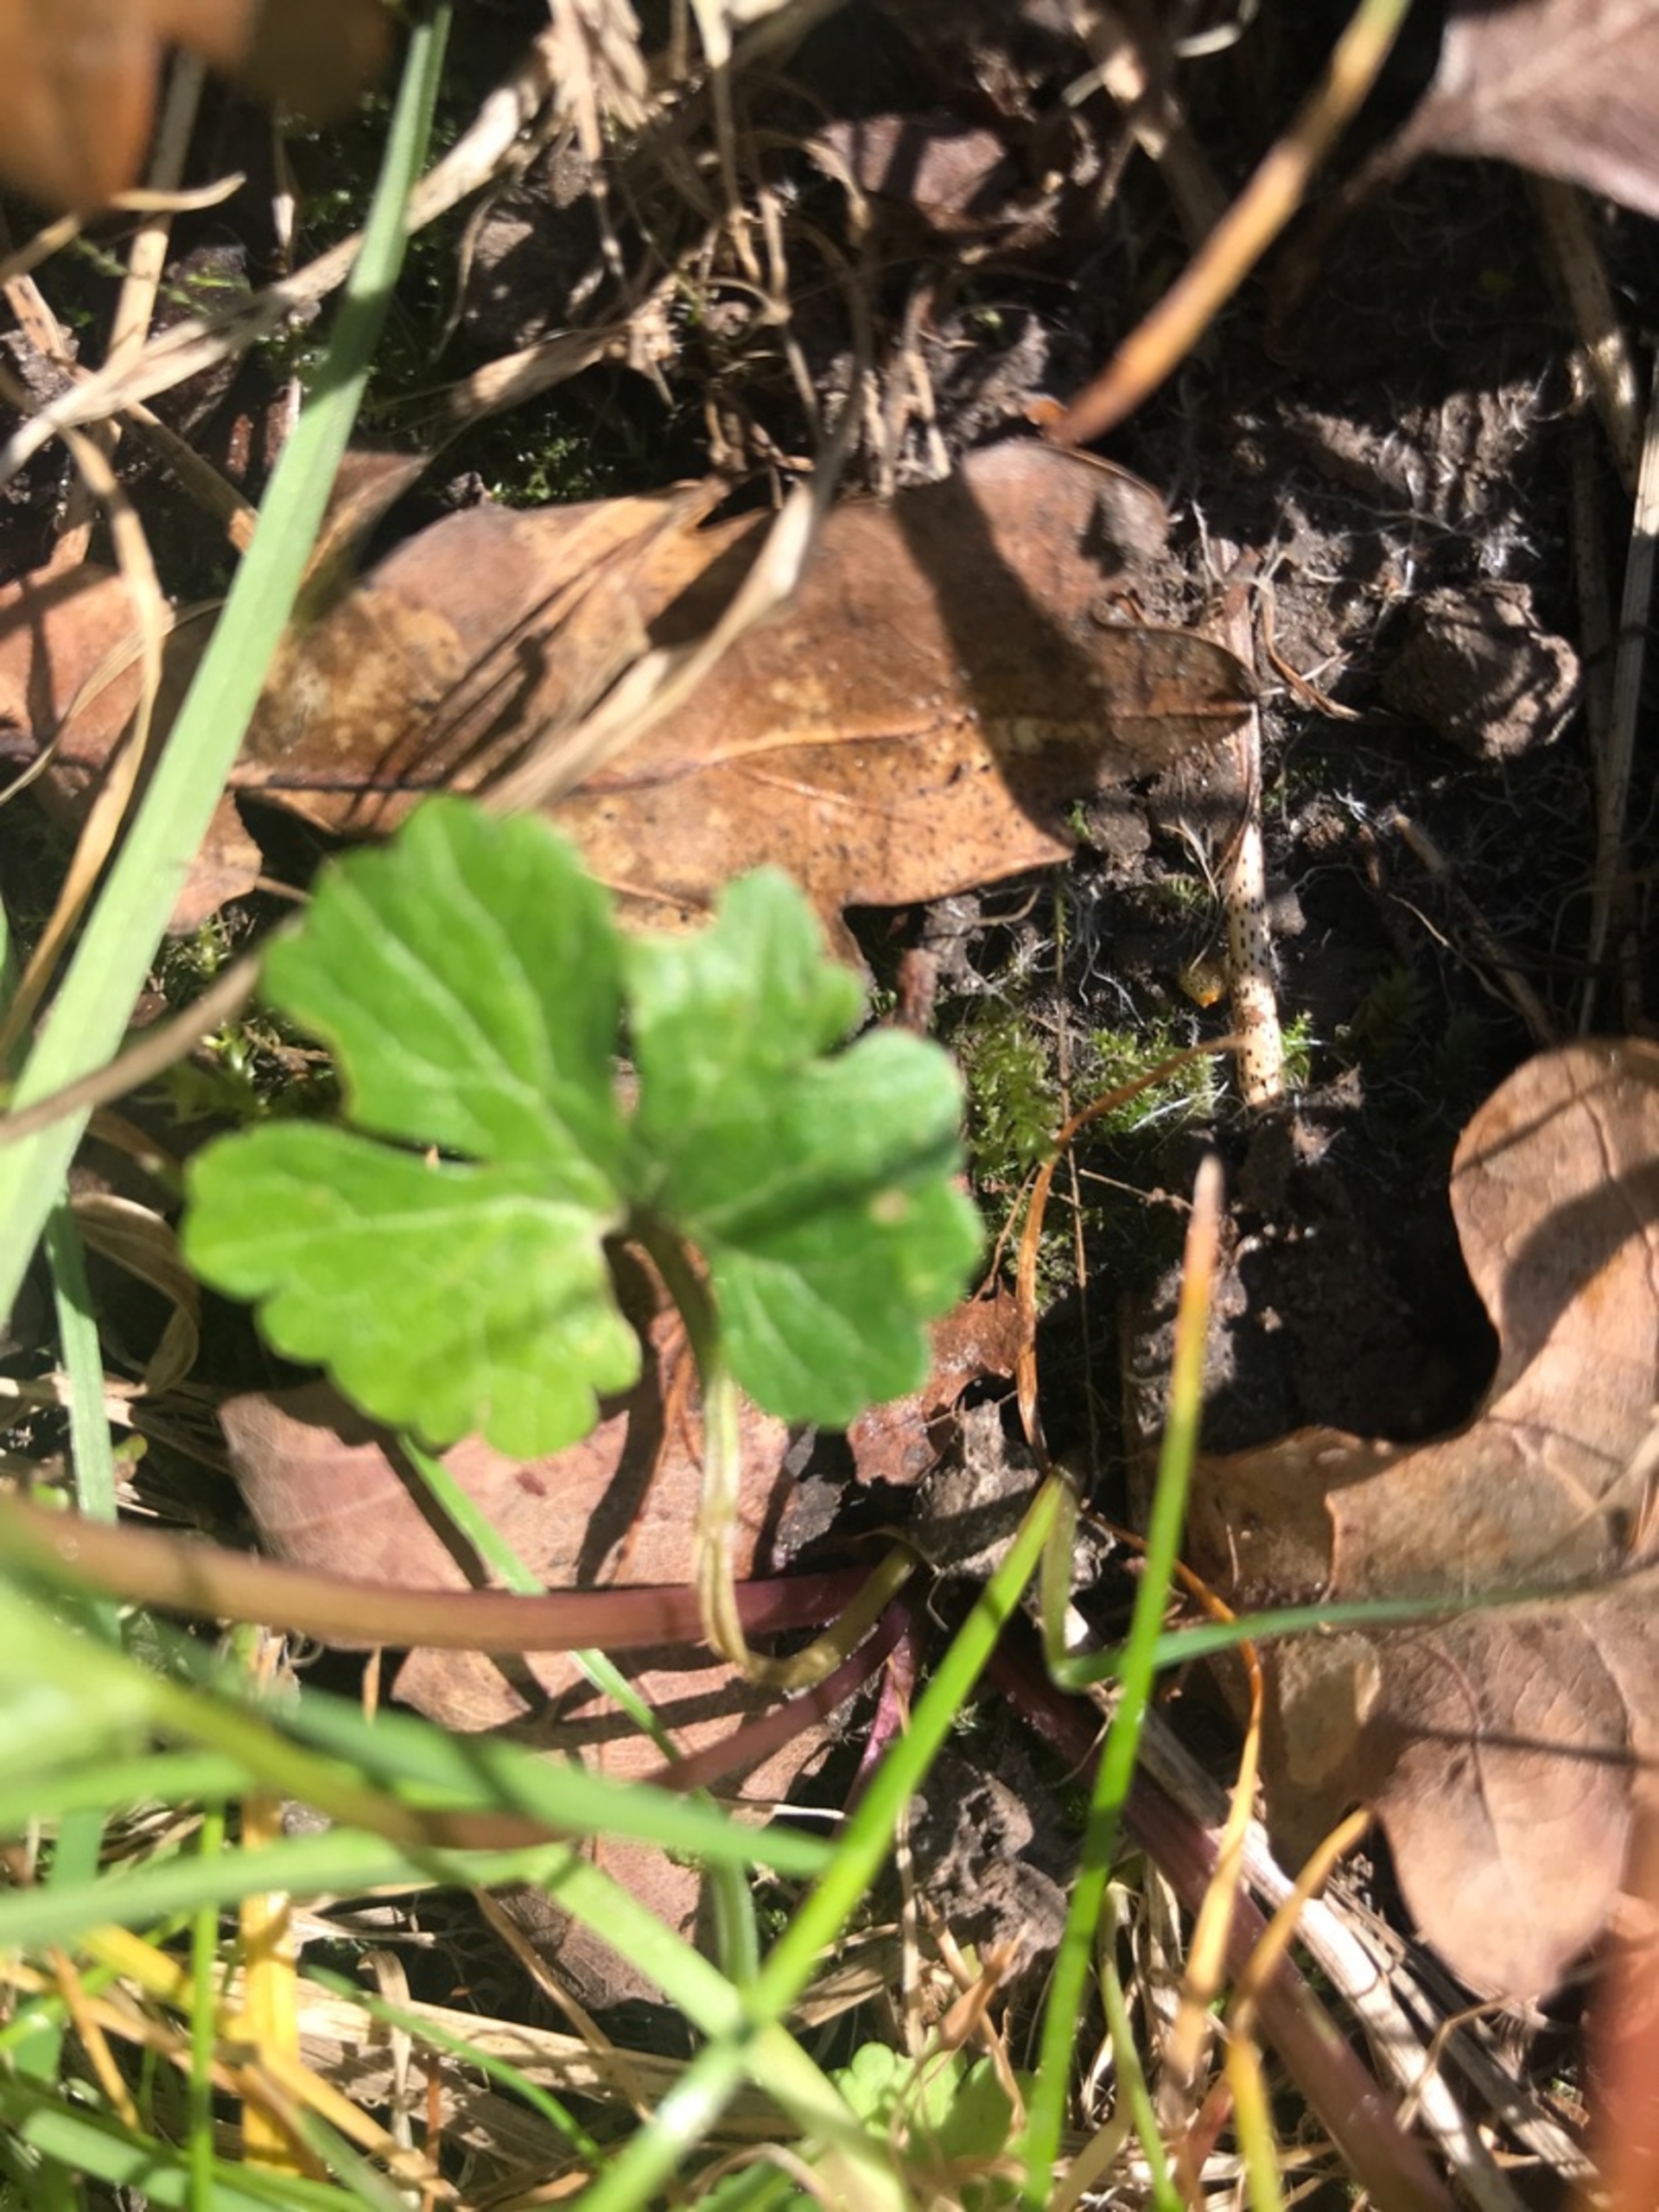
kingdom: Plantae
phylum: Tracheophyta
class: Magnoliopsida
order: Ranunculales
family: Ranunculaceae
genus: Ranunculus
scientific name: Ranunculus auricomus
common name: Nyrebladet ranunkel
